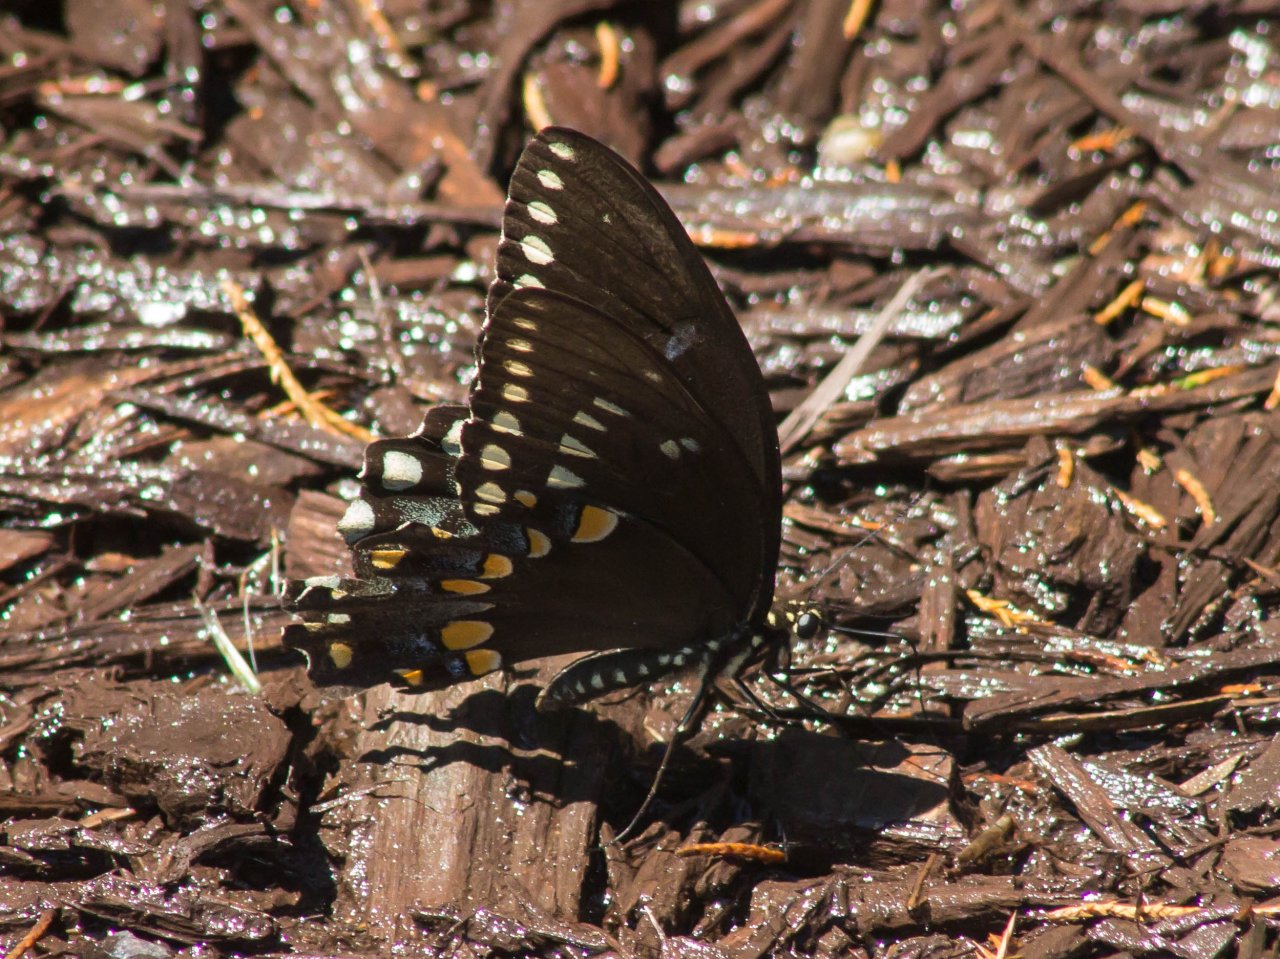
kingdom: Animalia
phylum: Arthropoda
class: Insecta
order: Lepidoptera
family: Papilionidae
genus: Pterourus
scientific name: Pterourus troilus
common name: Spicebush Swallowtail
